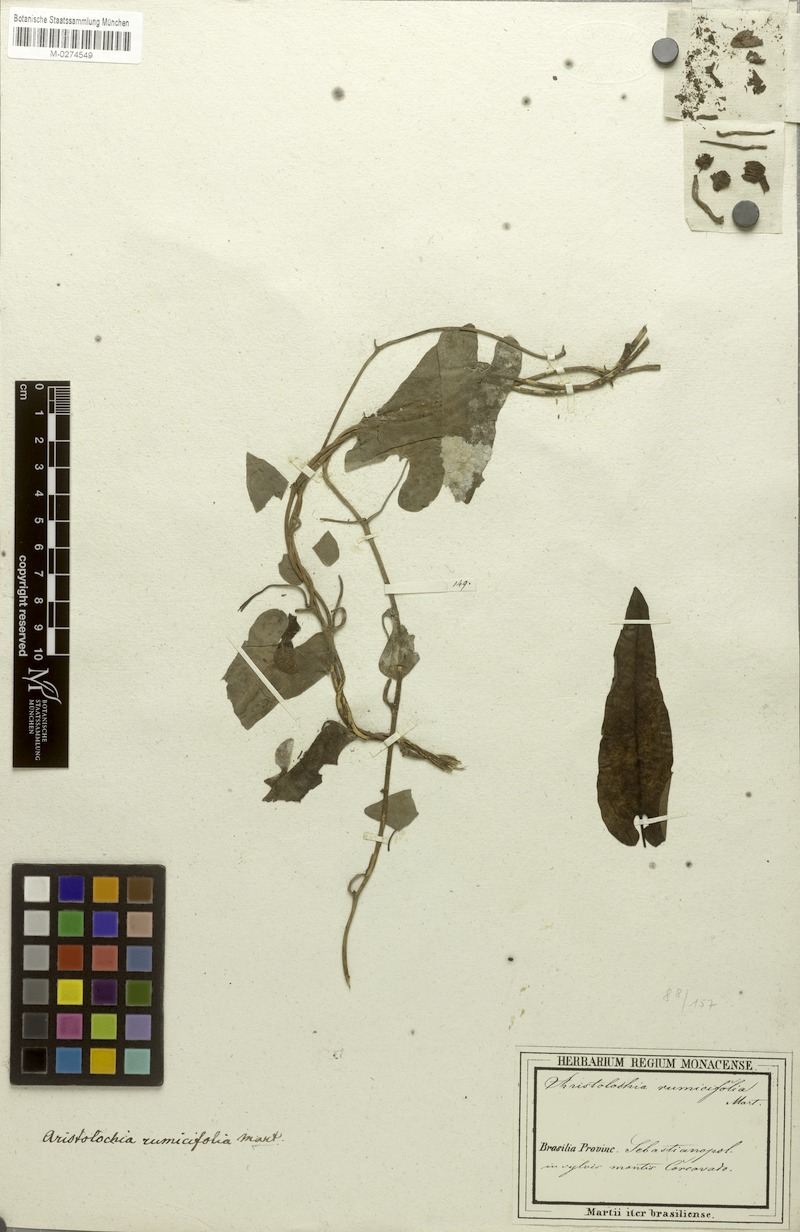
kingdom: Plantae
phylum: Tracheophyta
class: Magnoliopsida
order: Piperales
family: Aristolochiaceae
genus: Aristolochia
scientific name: Aristolochia rumicifolia
